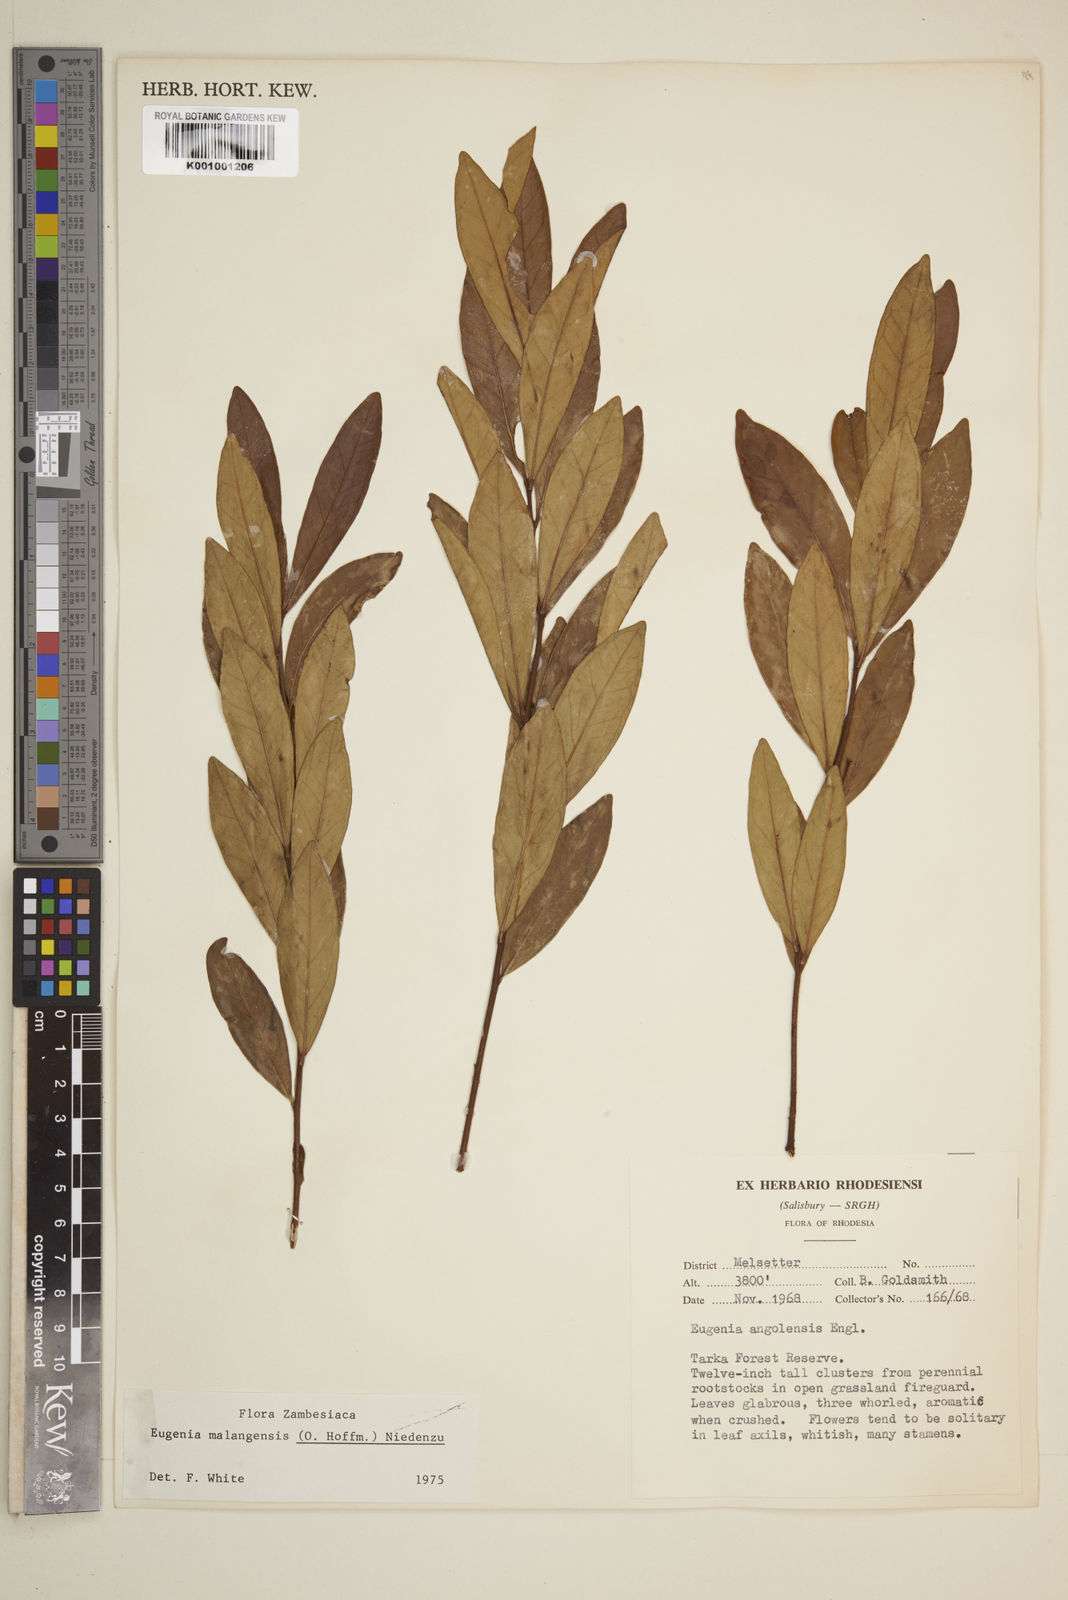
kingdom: Plantae
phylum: Tracheophyta
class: Magnoliopsida
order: Myrtales
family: Myrtaceae
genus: Eugenia
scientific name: Eugenia malangensis
